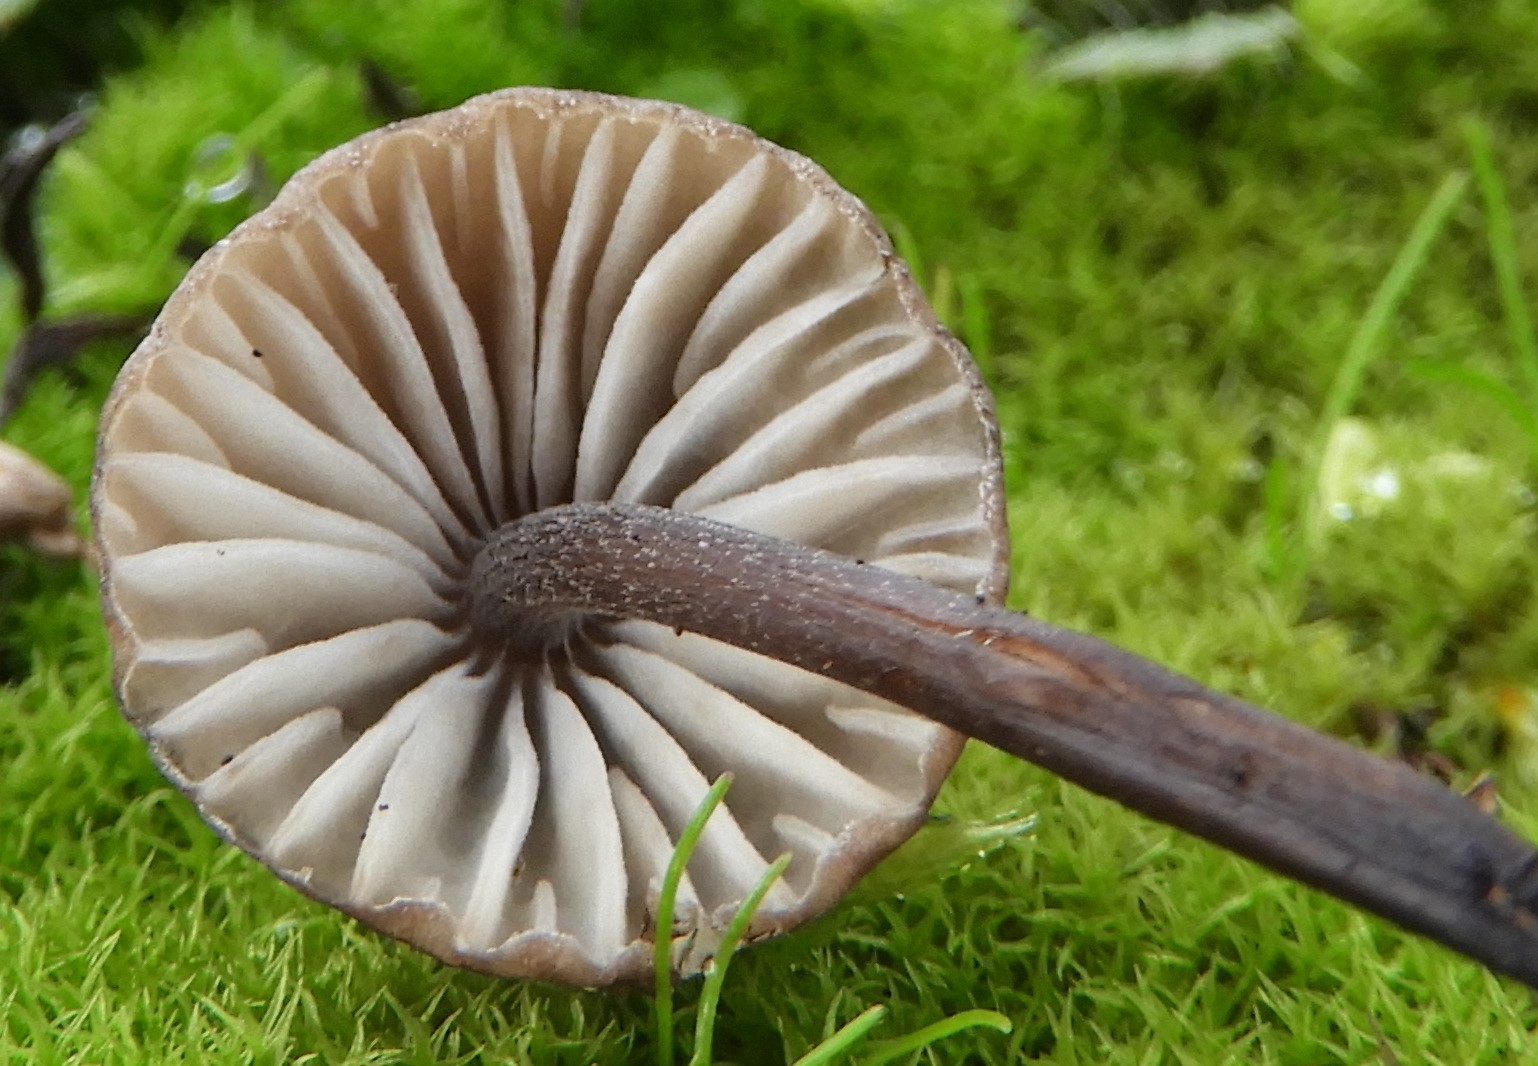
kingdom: Fungi
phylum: Basidiomycota
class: Agaricomycetes
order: Agaricales
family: Mycenaceae
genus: Mycena
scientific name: Mycena galopus
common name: hvidmælket huesvamp
